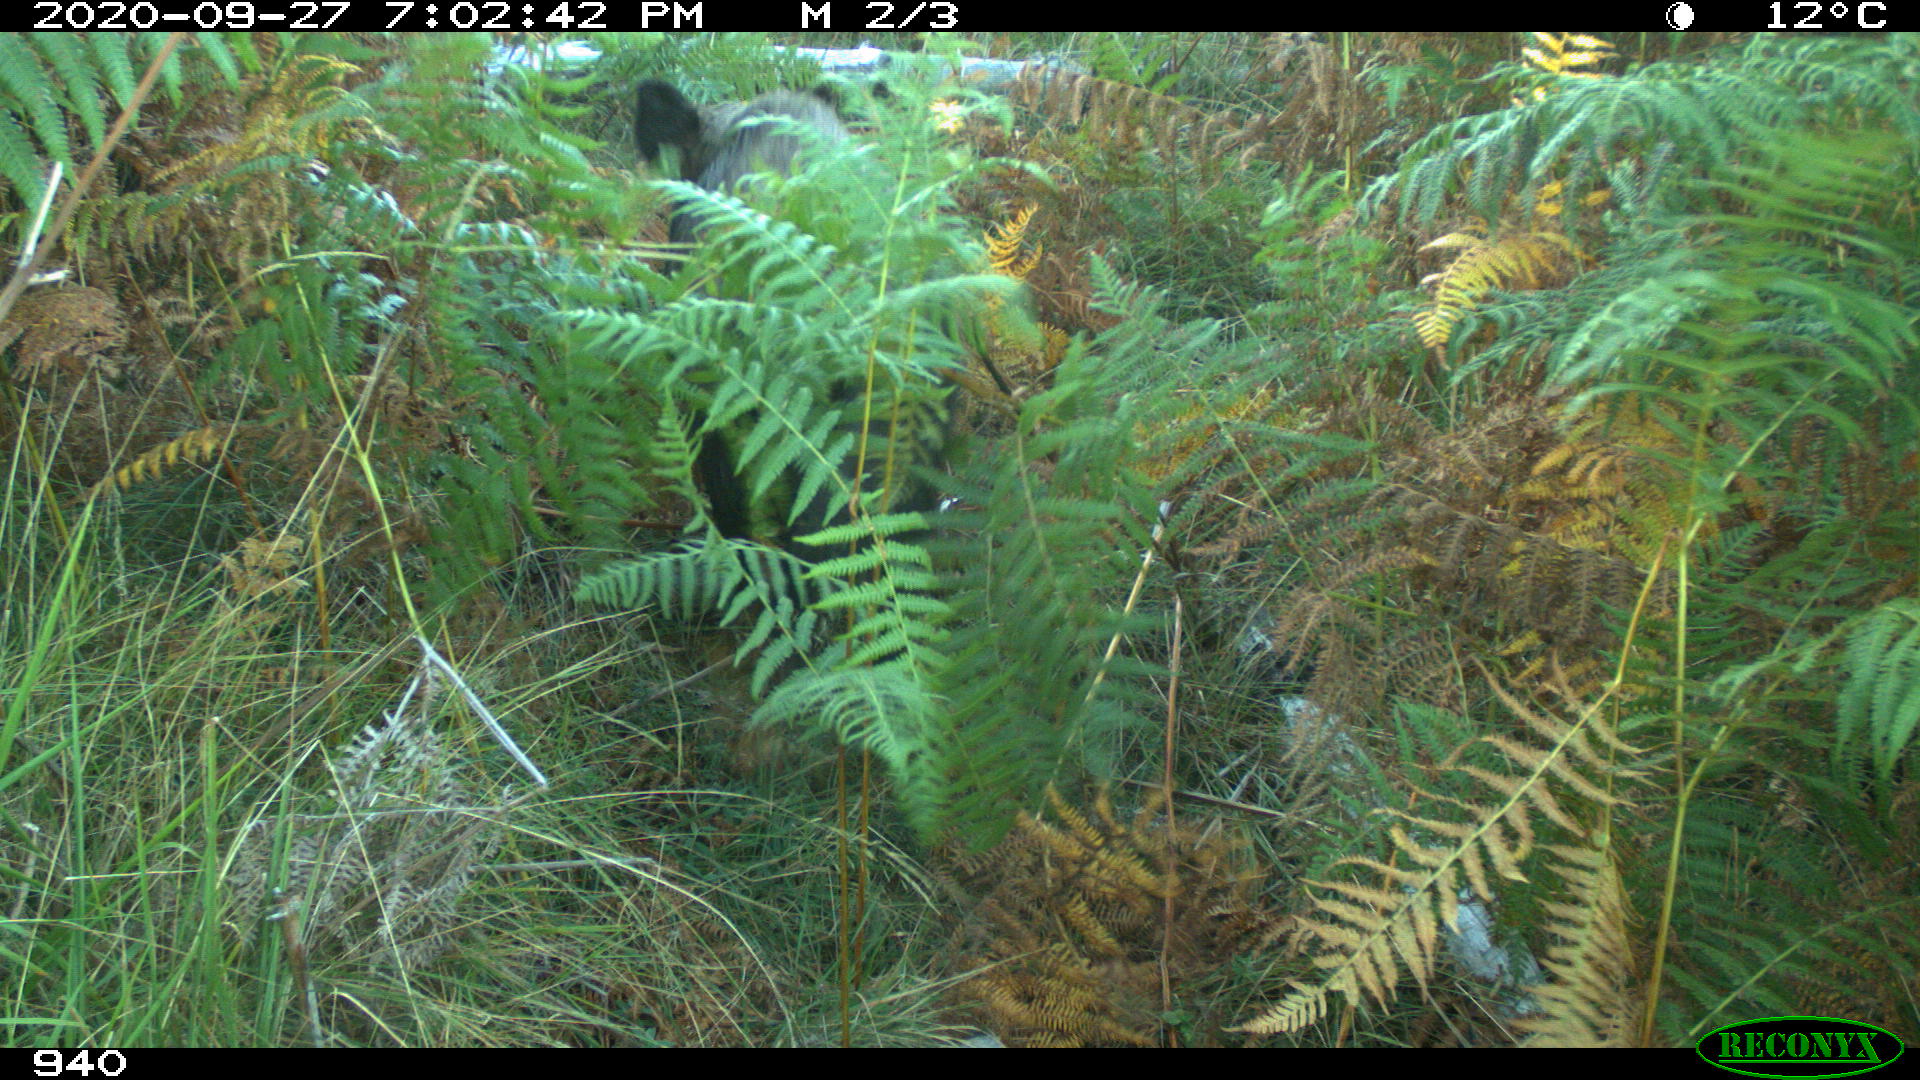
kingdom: Animalia
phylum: Chordata
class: Mammalia
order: Artiodactyla
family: Suidae
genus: Sus
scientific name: Sus scrofa
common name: Wild boar
